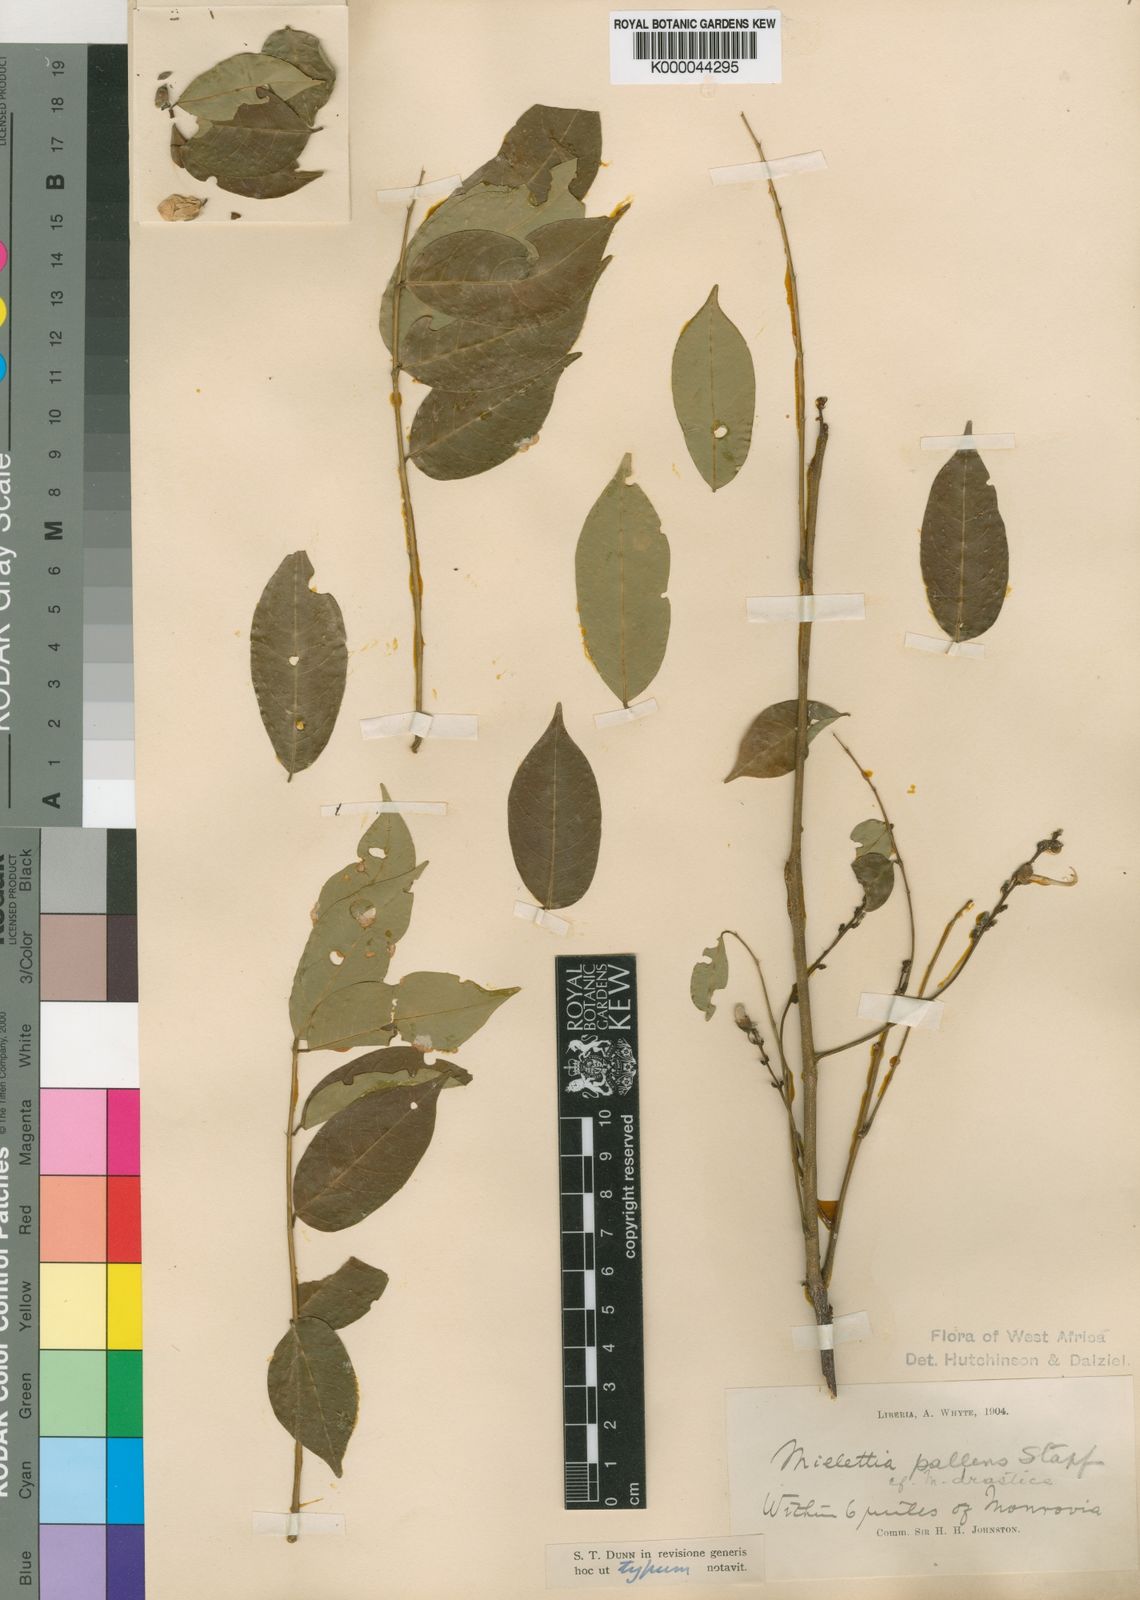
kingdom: Plantae
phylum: Tracheophyta
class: Magnoliopsida
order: Fabales
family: Fabaceae
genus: Millettia
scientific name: Millettia pallens
